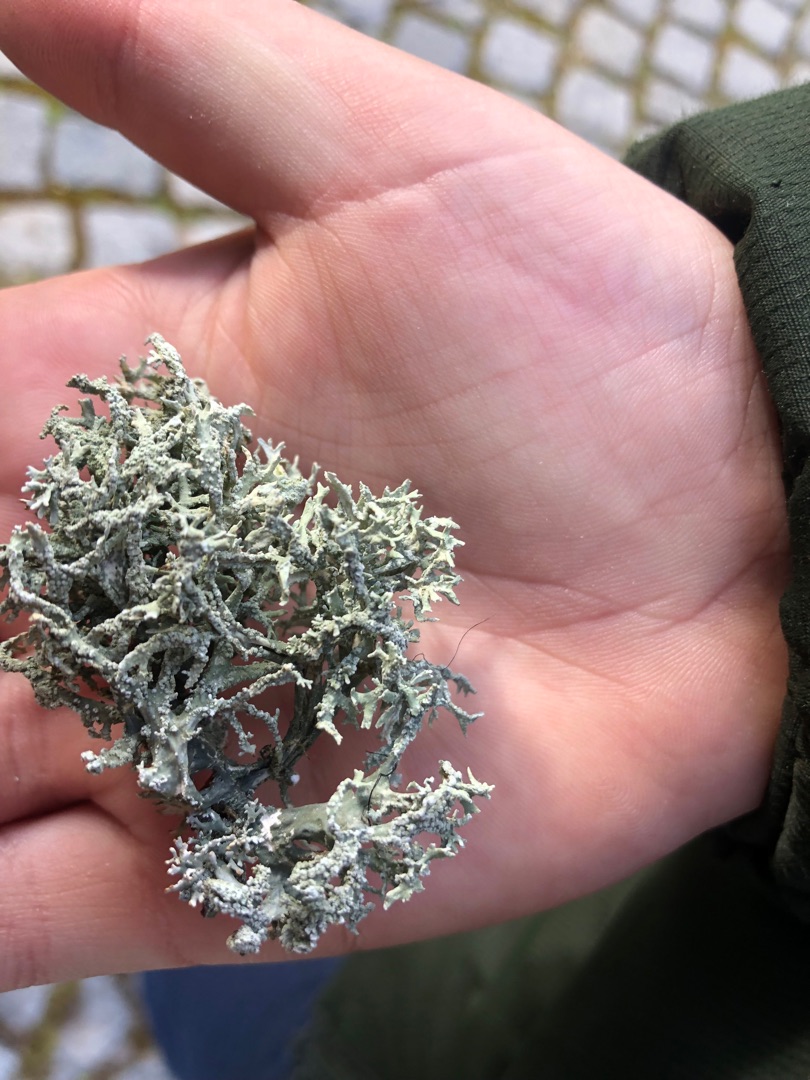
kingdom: Fungi
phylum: Ascomycota
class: Lecanoromycetes
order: Lecanorales
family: Parmeliaceae
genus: Evernia
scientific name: Evernia prunastri
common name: Almindelig slåenlav
